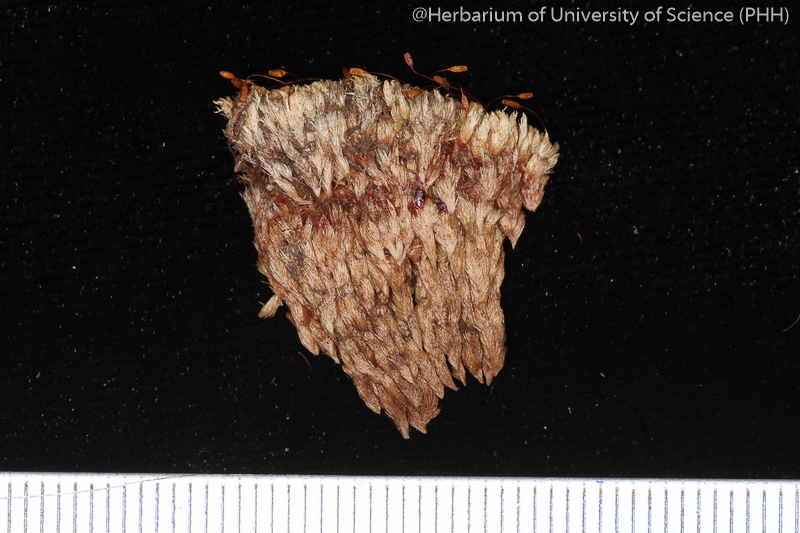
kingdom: Plantae
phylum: Bryophyta
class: Bryopsida
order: Dicranales
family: Calymperaceae
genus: Syrrhopodon
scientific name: Syrrhopodon bornensis
